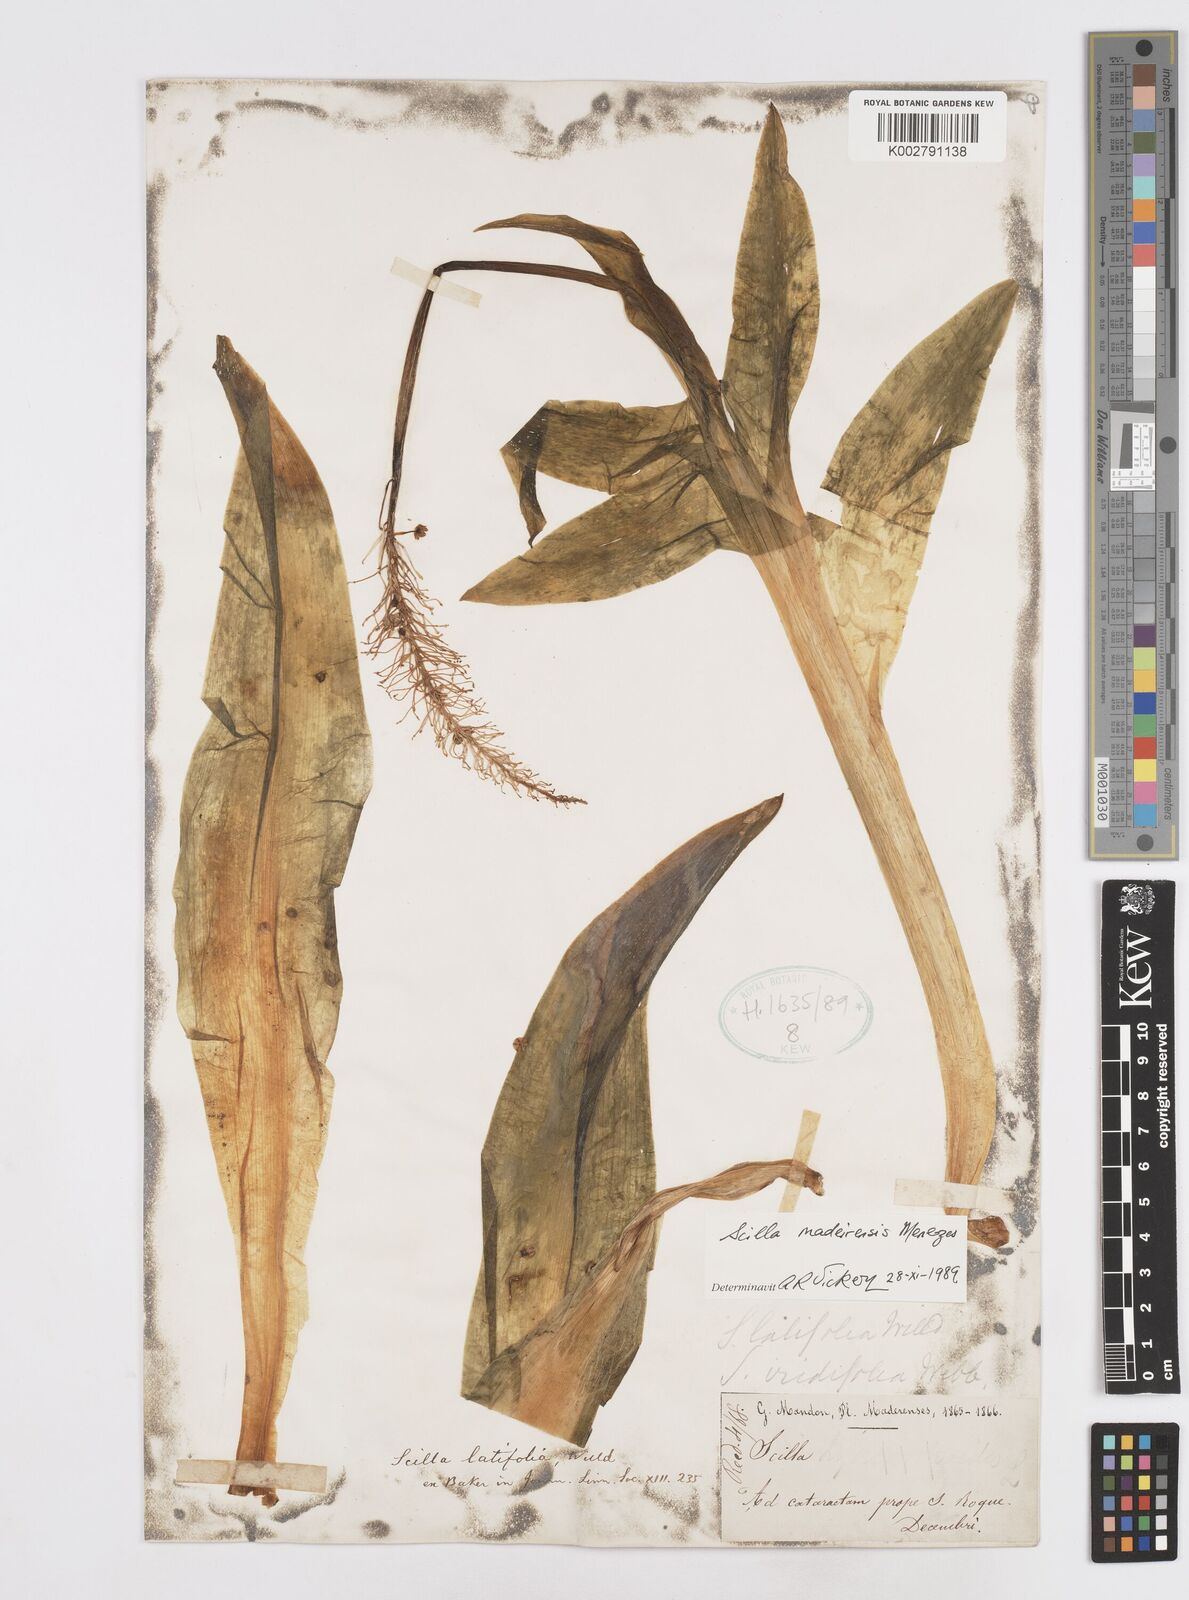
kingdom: Plantae
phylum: Tracheophyta
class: Liliopsida
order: Asparagales
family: Asparagaceae
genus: Scilla
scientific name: Scilla madeirensis
